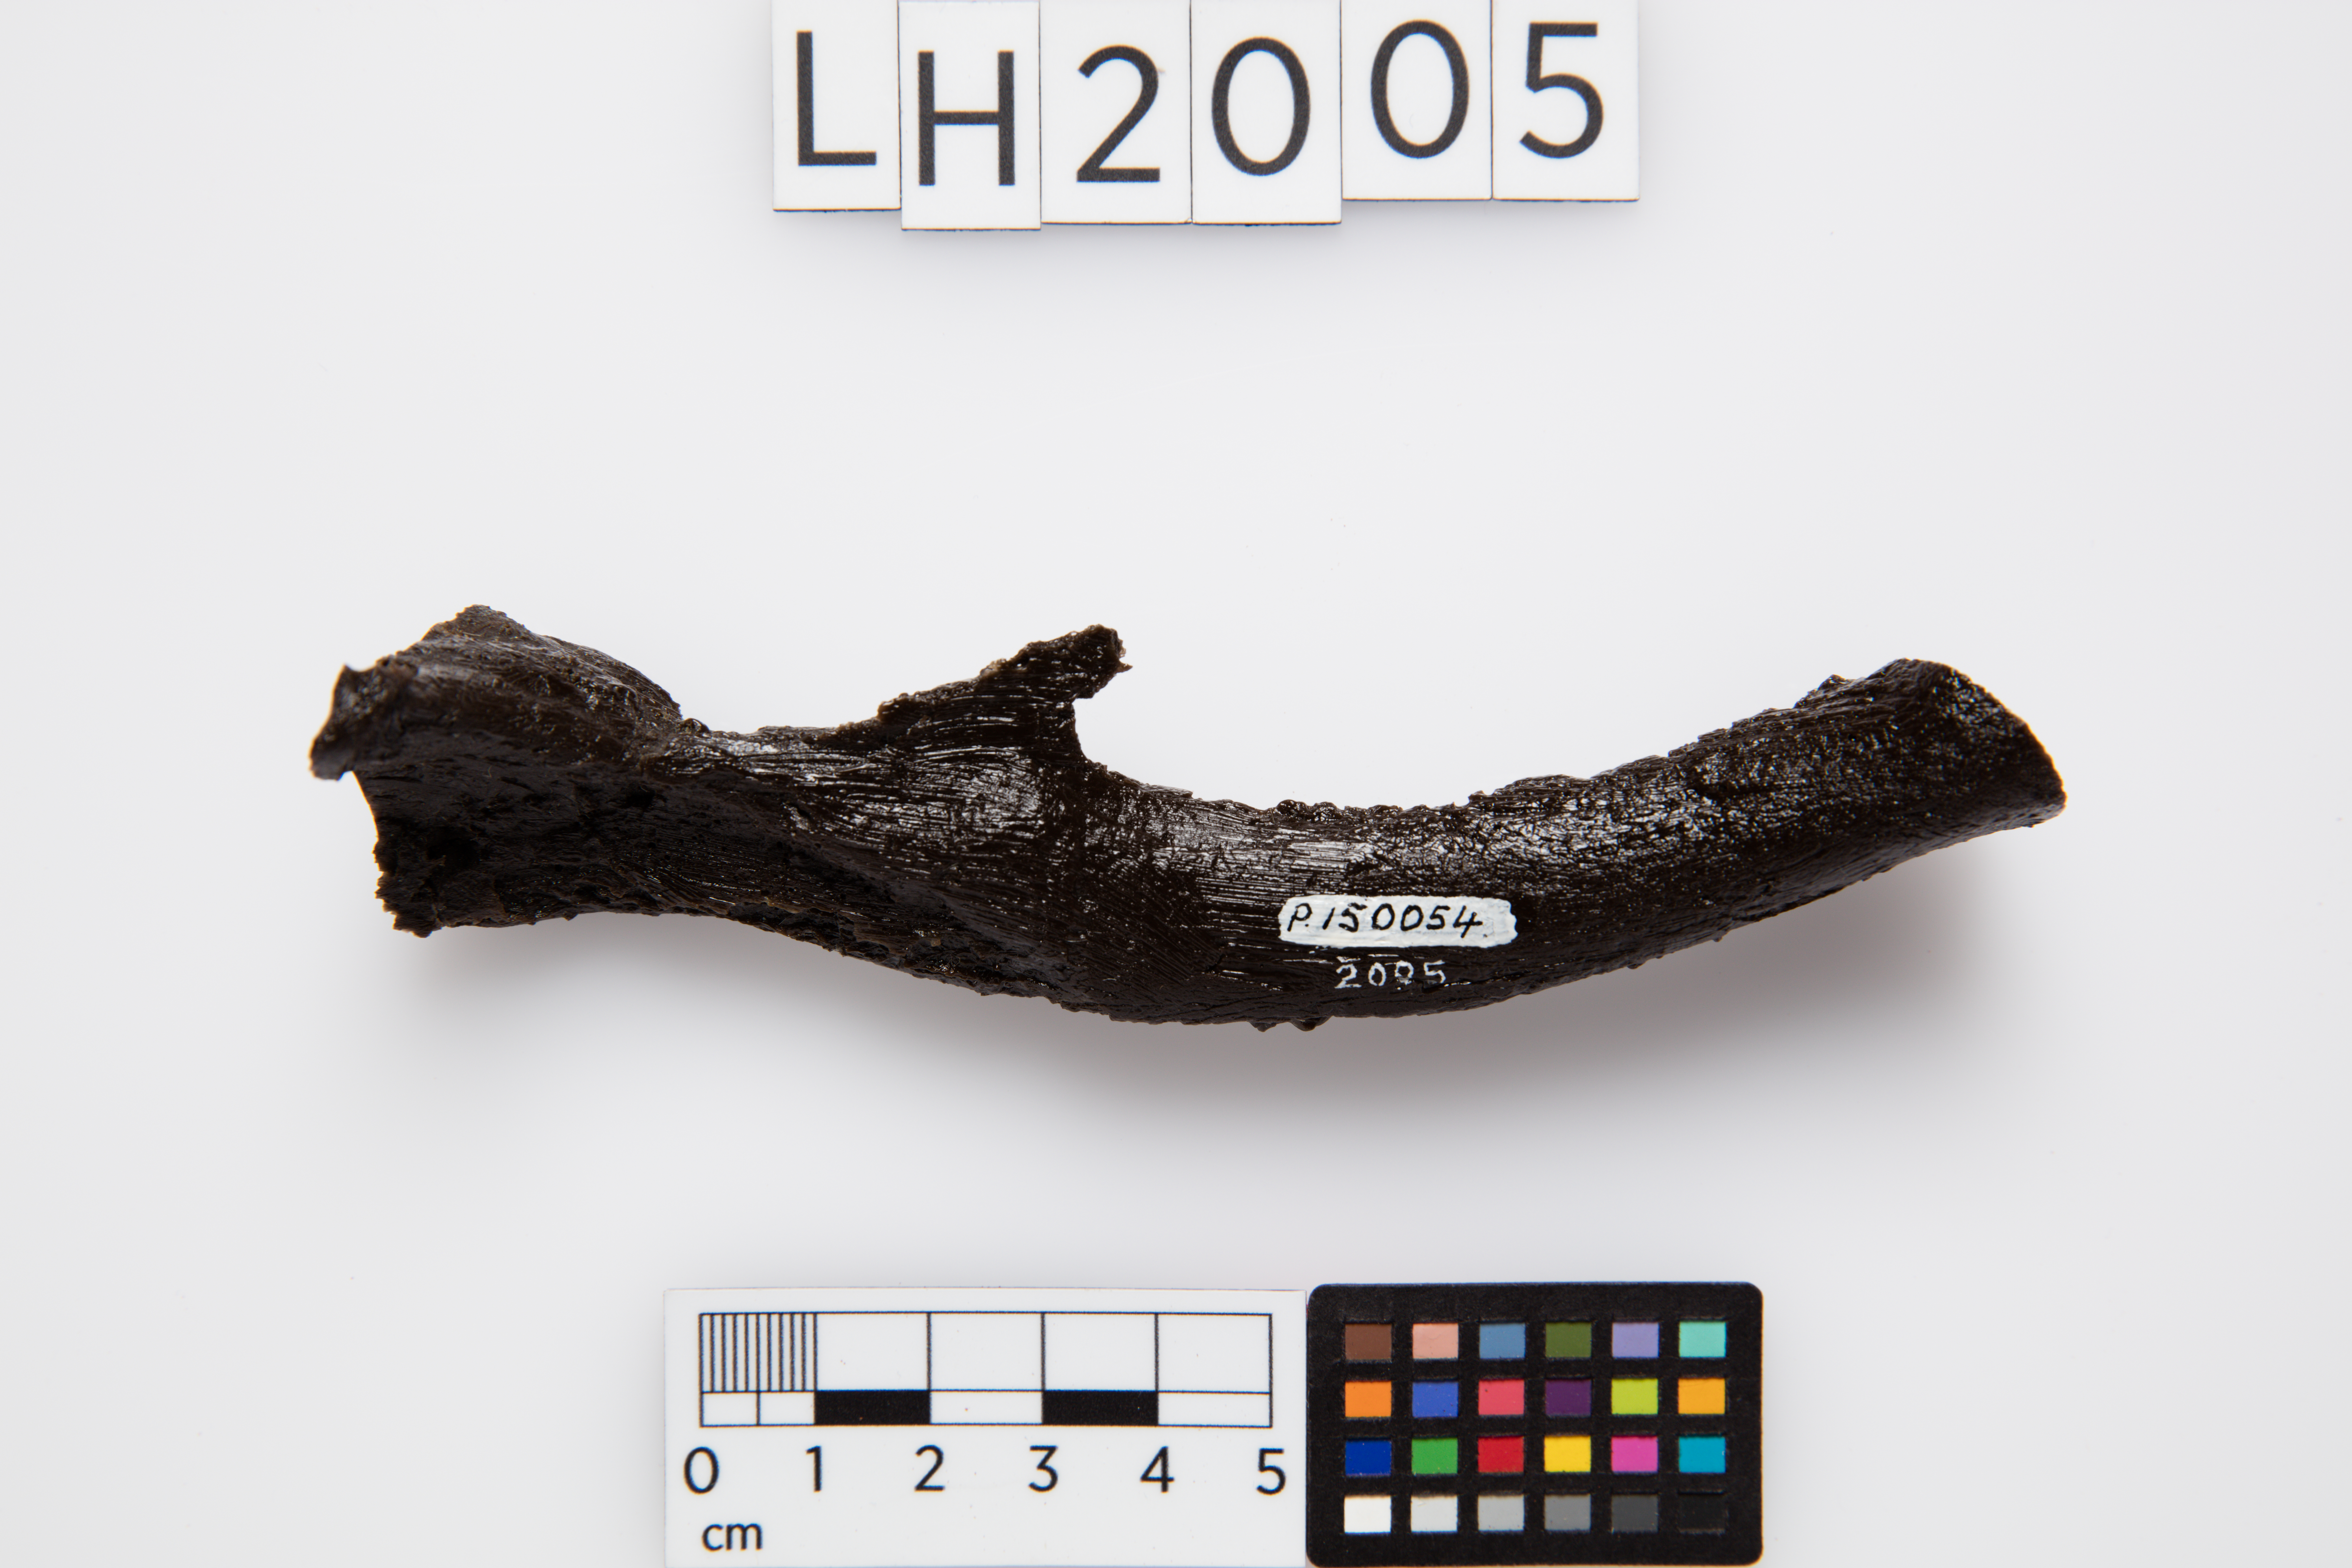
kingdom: Animalia
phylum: Chordata
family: Hypsilophodontidae
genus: Fulgurotherium
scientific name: Fulgurotherium australe
